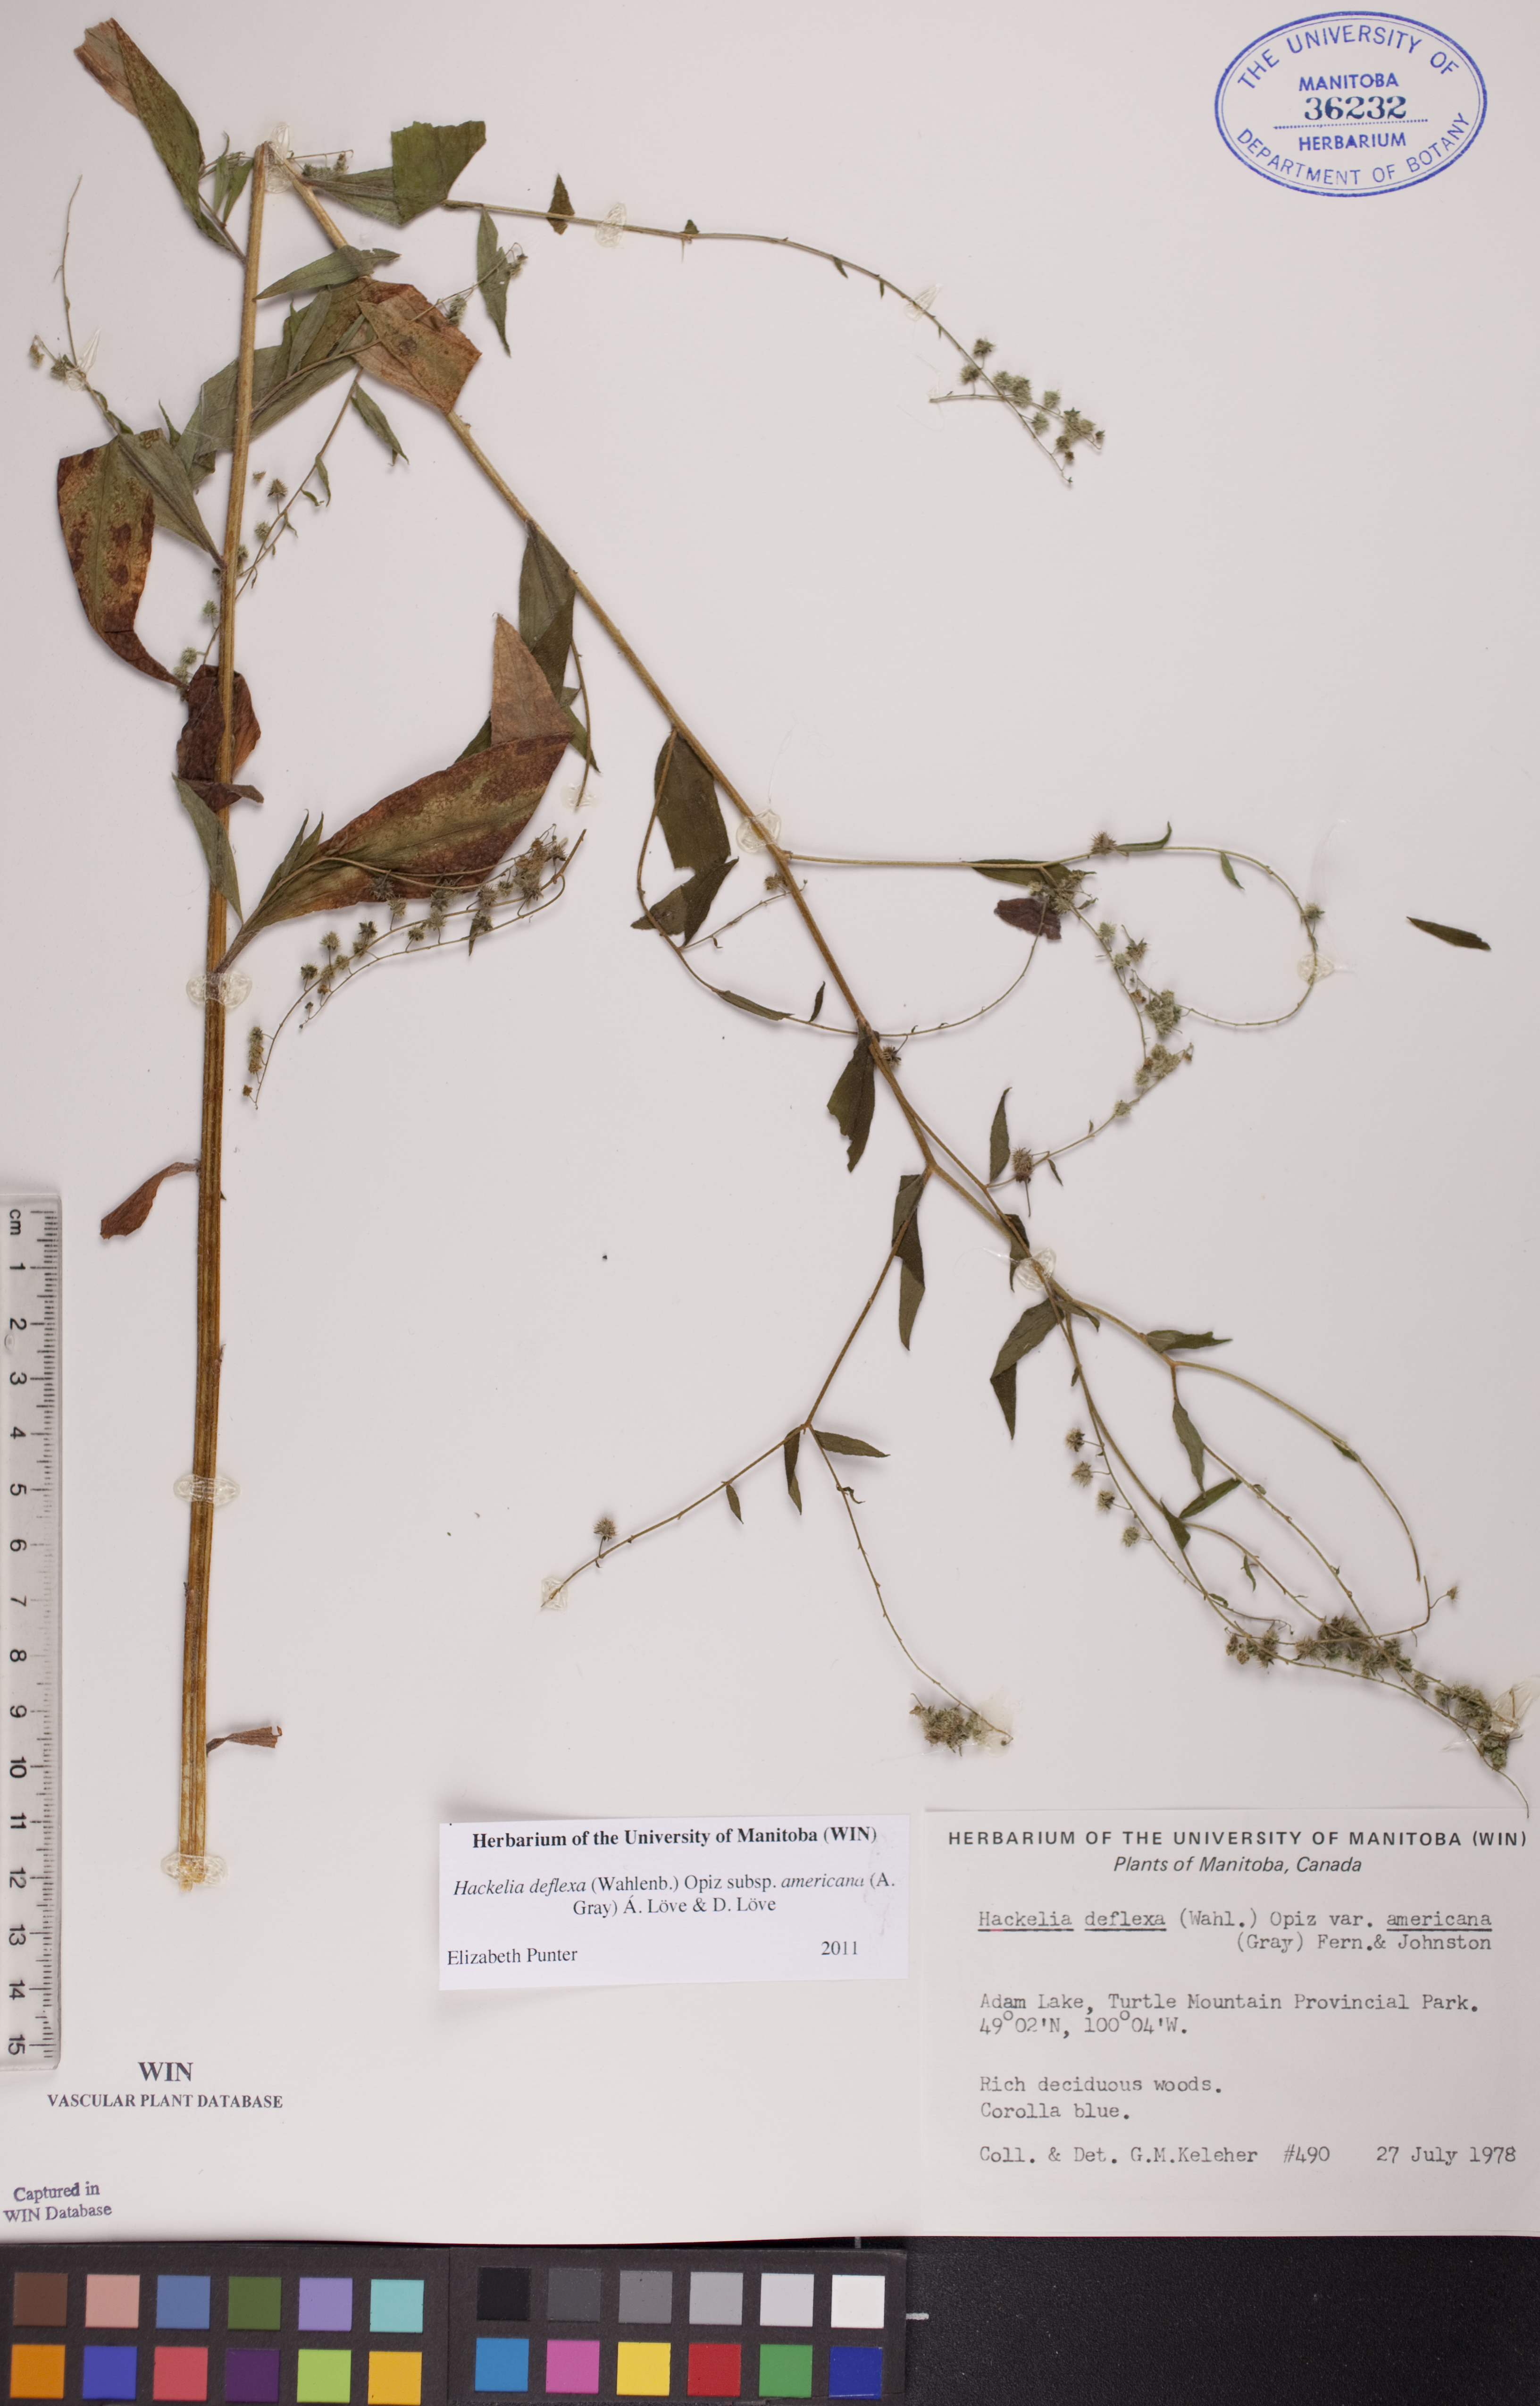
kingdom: Plantae
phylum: Tracheophyta
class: Magnoliopsida
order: Boraginales
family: Boraginaceae
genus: Hackelia
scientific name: Hackelia deflexa
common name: Nodding stickseed
